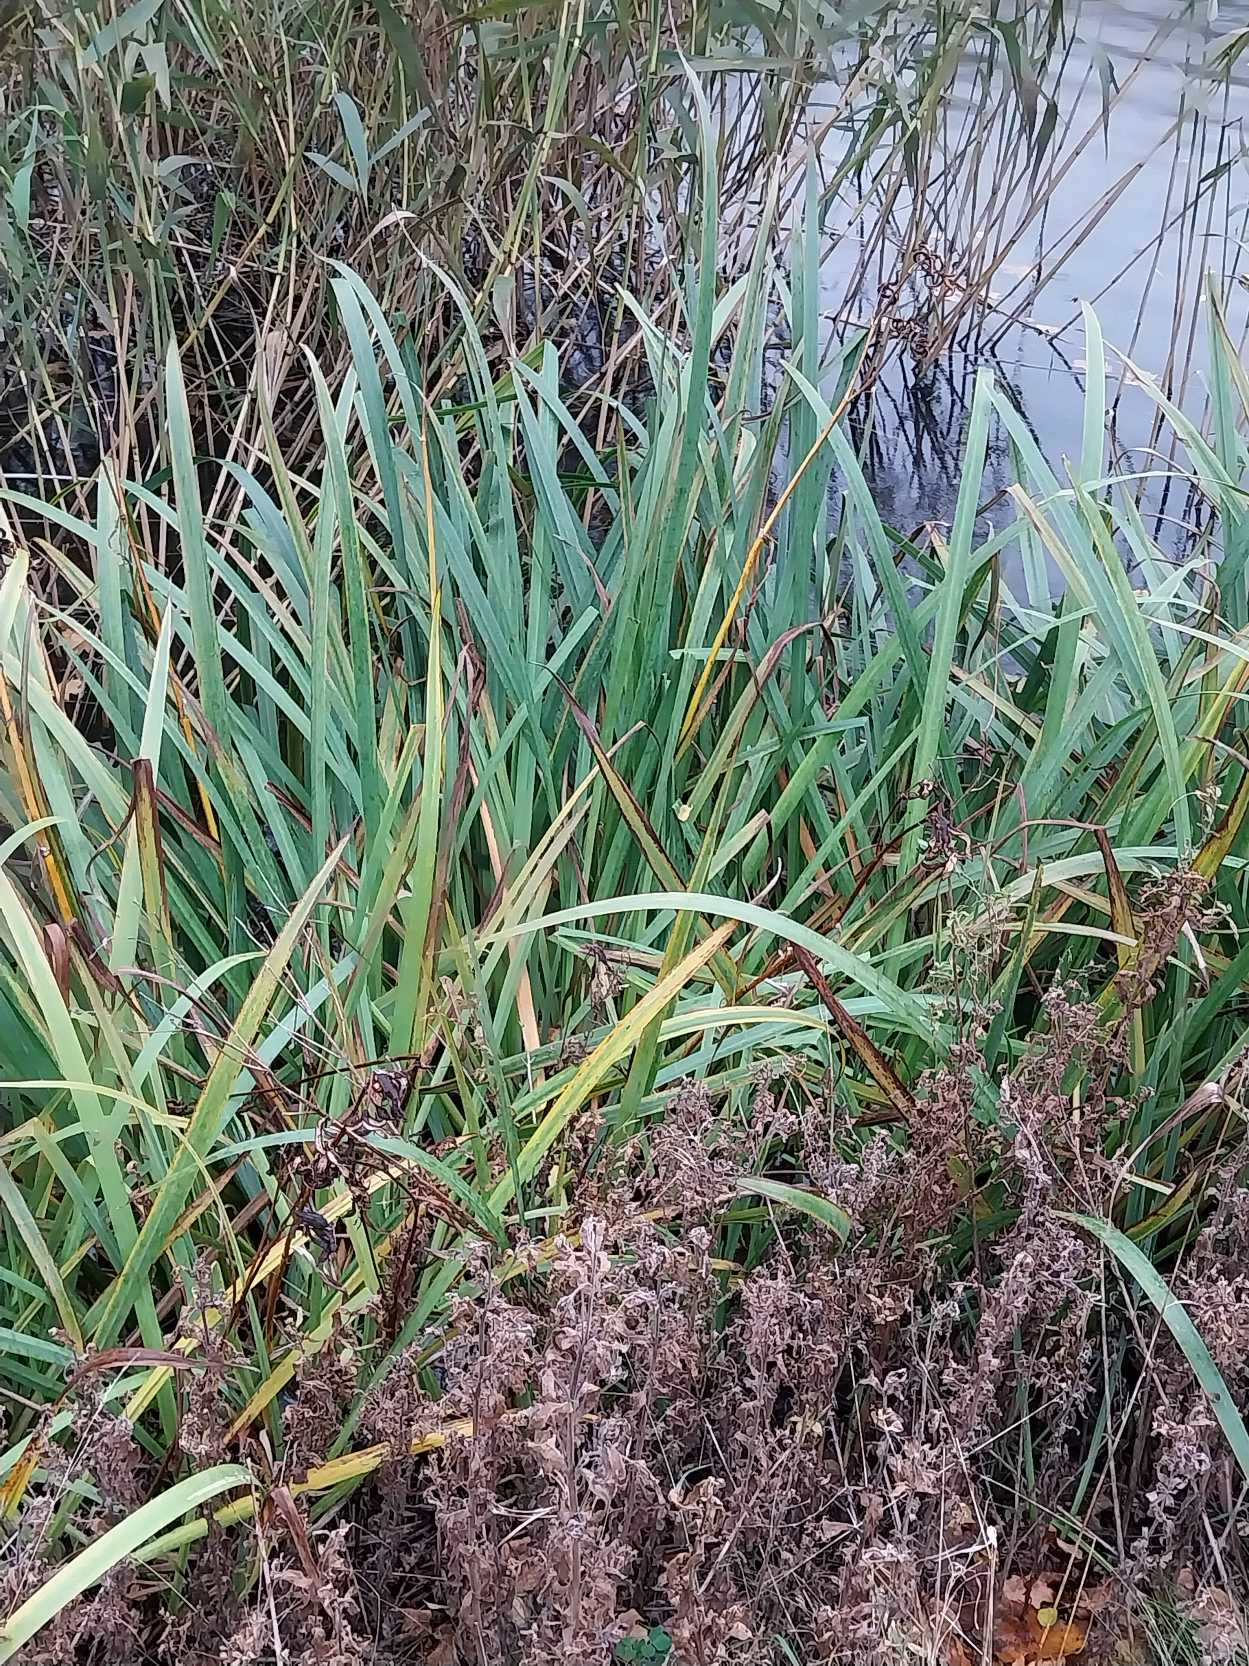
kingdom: Plantae
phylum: Tracheophyta
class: Liliopsida
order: Asparagales
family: Iridaceae
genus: Iris
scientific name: Iris pseudacorus
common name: Gul iris
